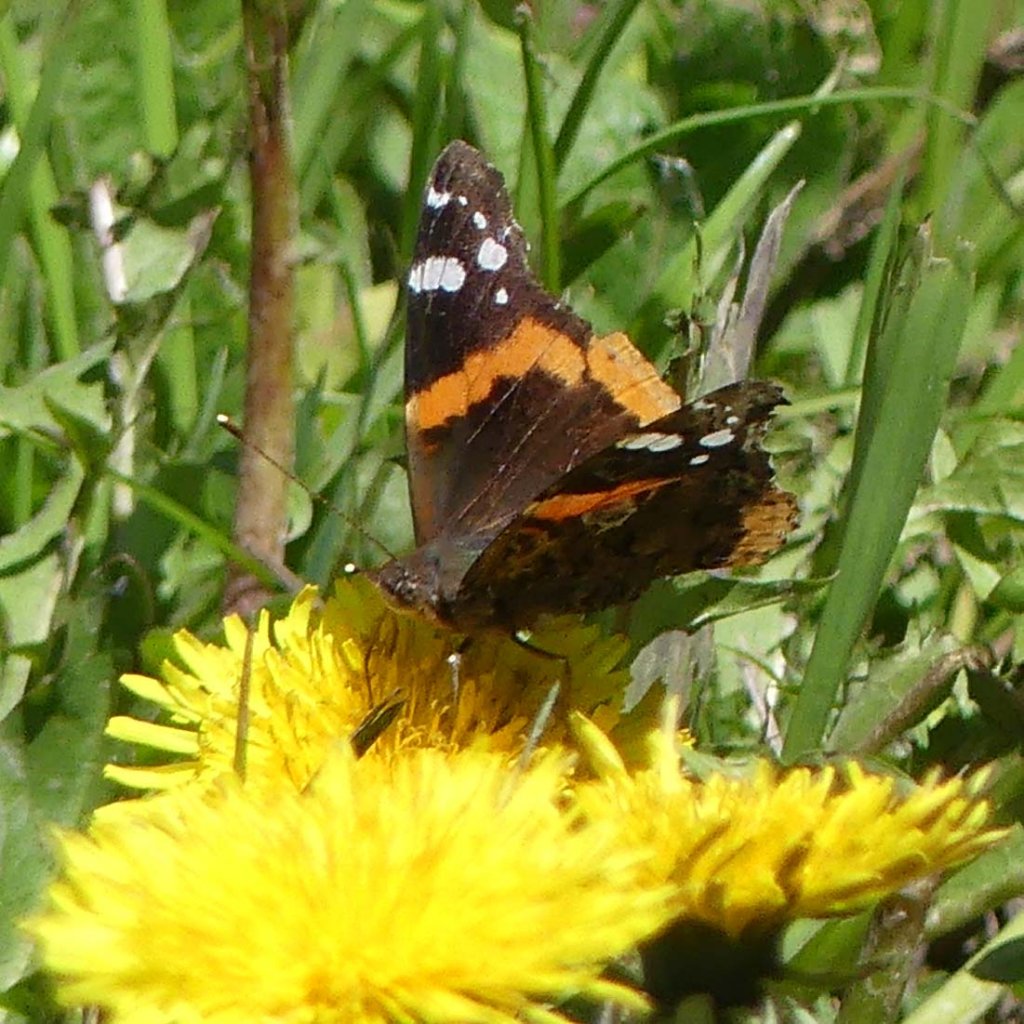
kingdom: Animalia
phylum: Arthropoda
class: Insecta
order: Lepidoptera
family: Nymphalidae
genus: Vanessa
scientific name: Vanessa atalanta
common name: Red Admiral
